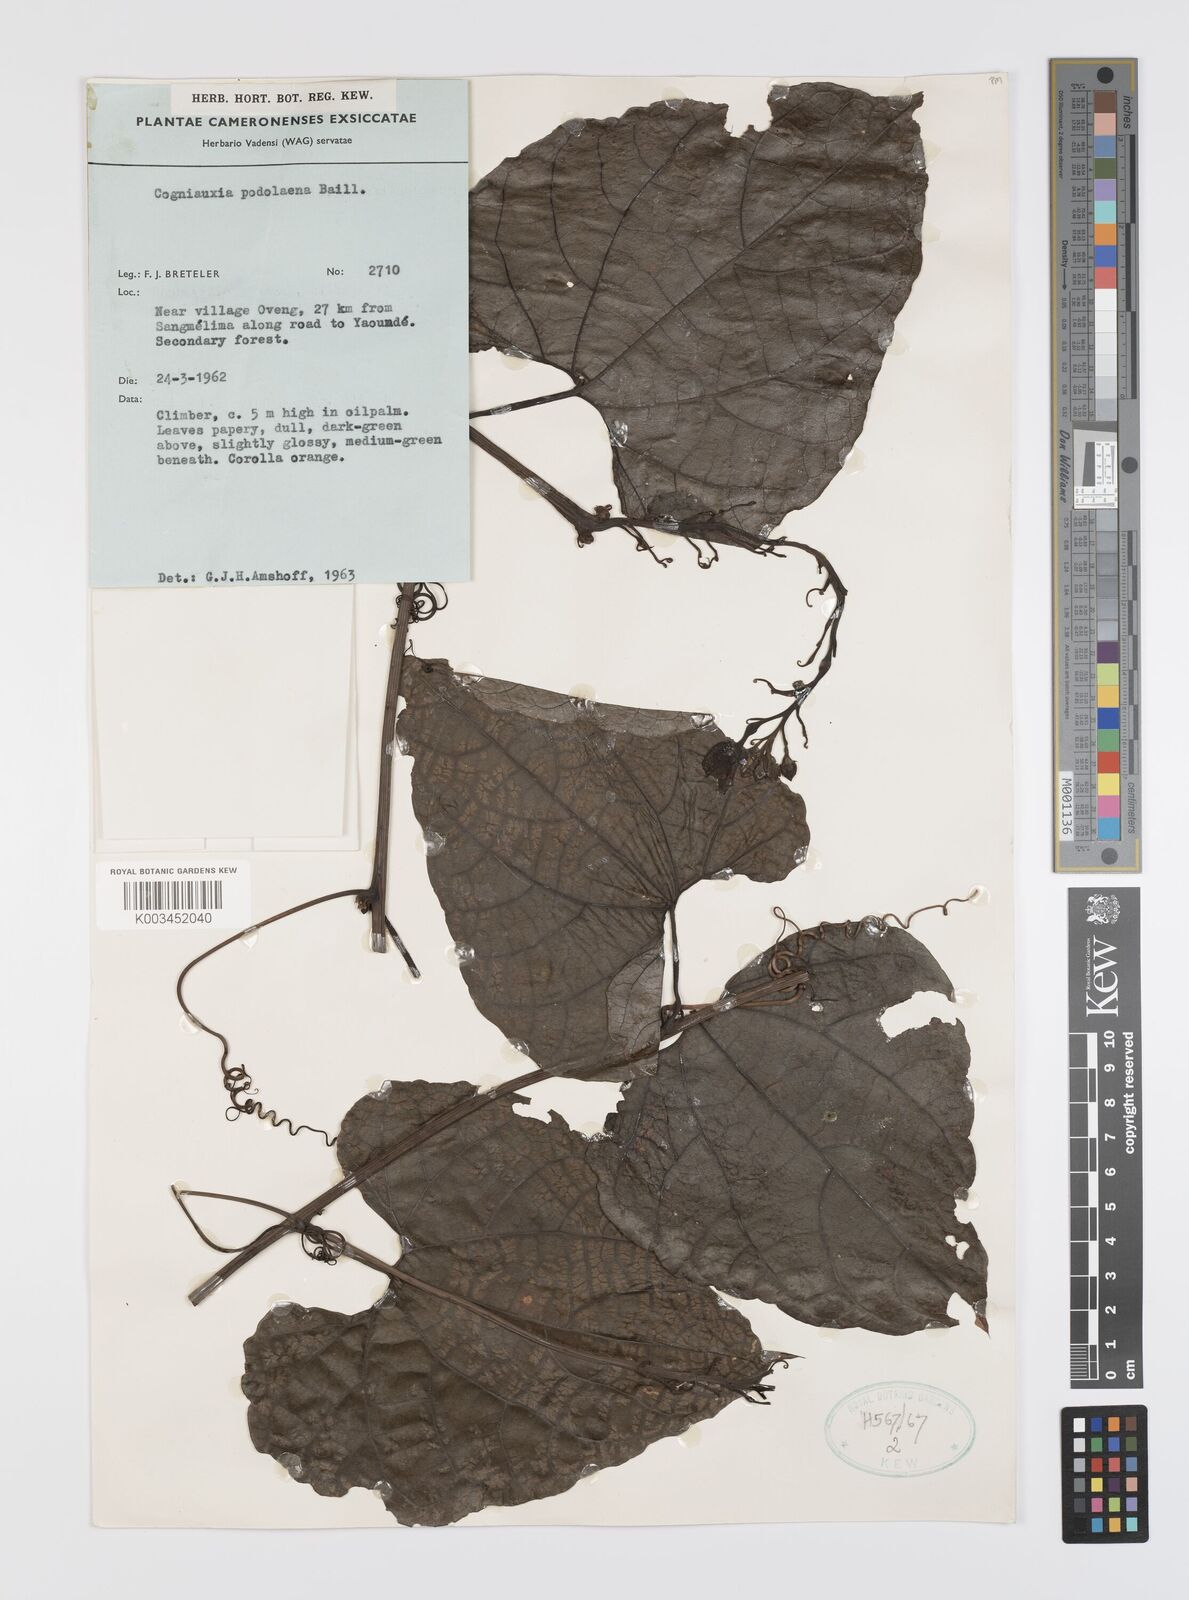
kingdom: Plantae
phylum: Tracheophyta
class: Magnoliopsida
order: Cucurbitales
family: Cucurbitaceae
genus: Cogniauxia
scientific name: Cogniauxia podolaena
